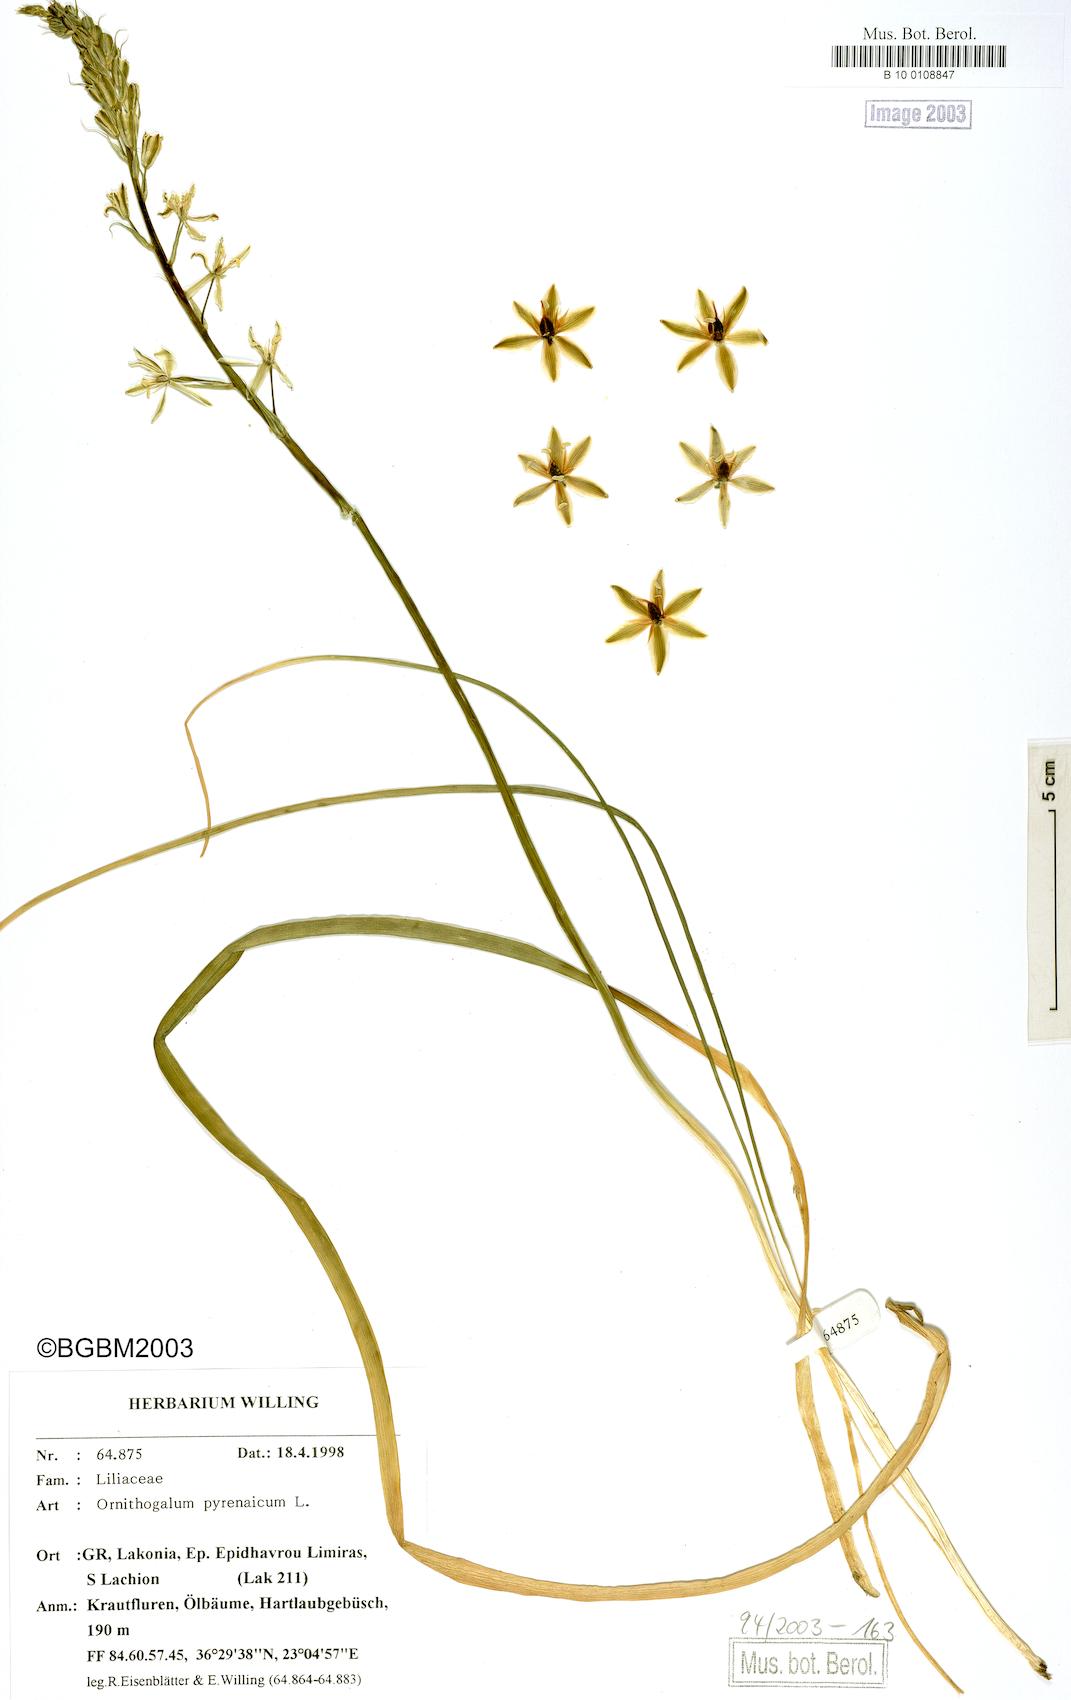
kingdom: Plantae
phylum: Tracheophyta
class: Liliopsida
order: Asparagales
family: Asparagaceae
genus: Ornithogalum
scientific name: Ornithogalum pyrenaicum
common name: Spiked star-of-bethlehem
